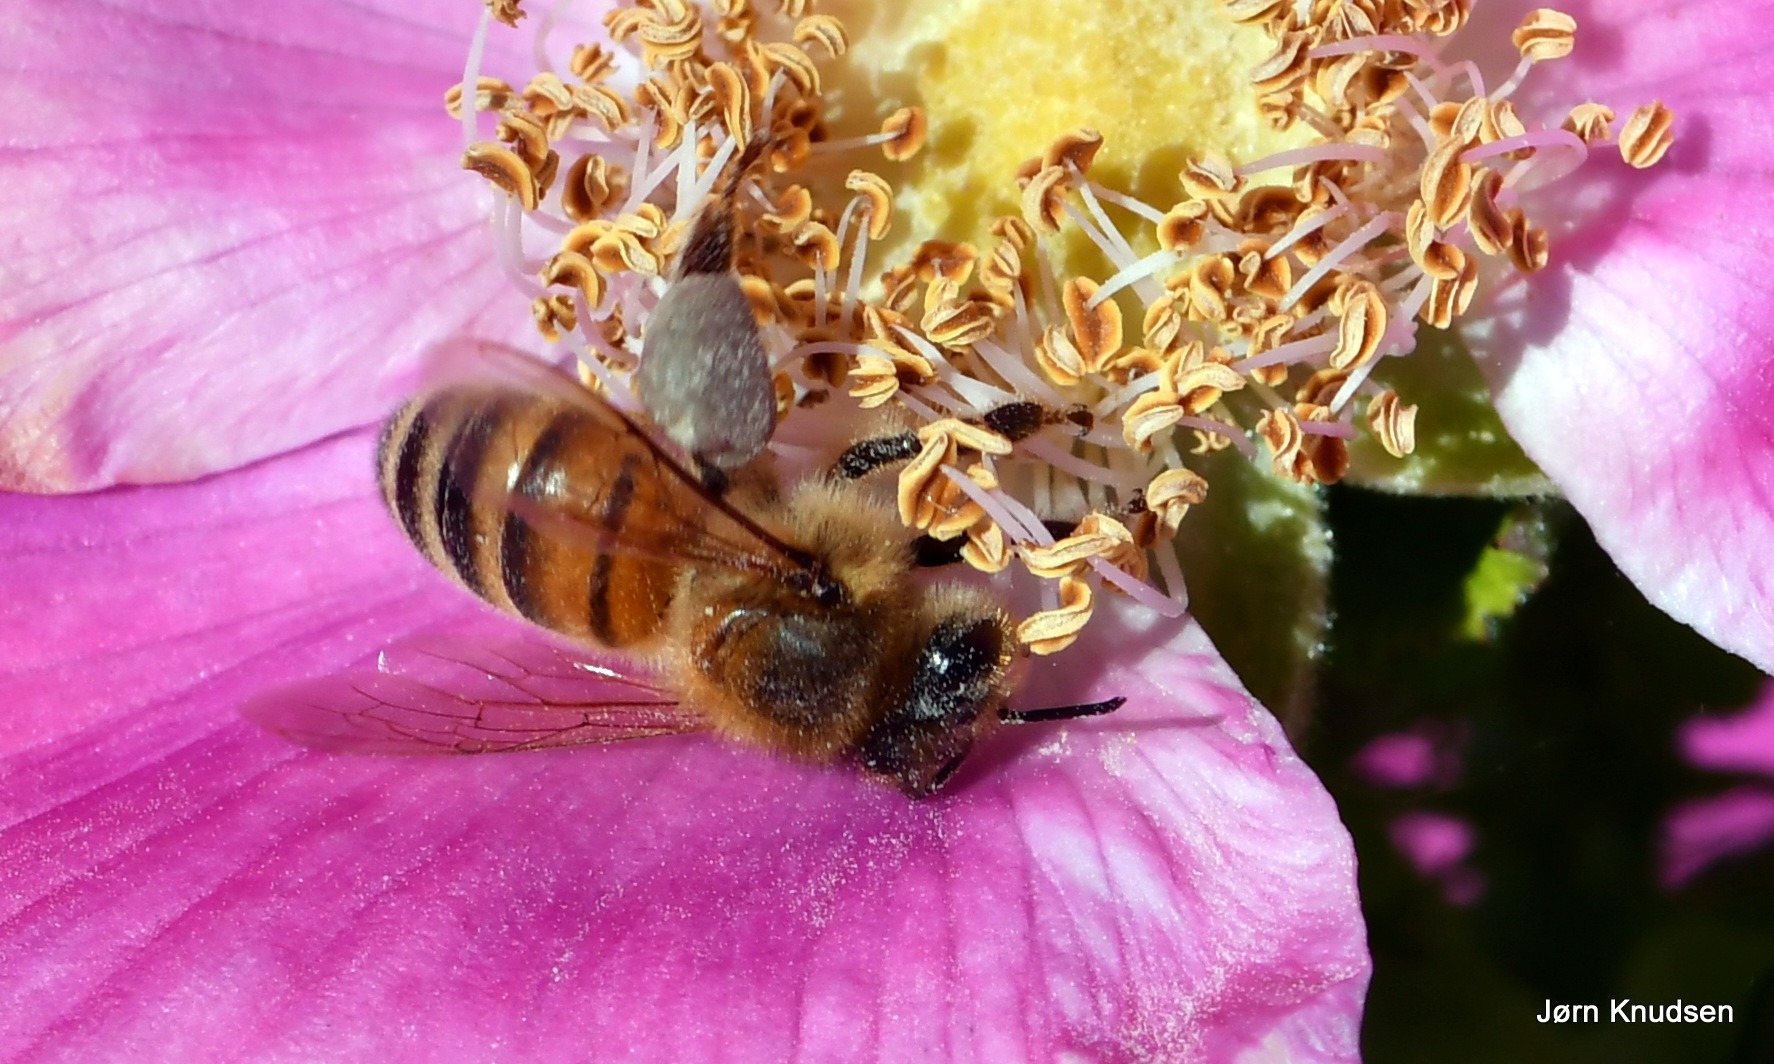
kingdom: Animalia
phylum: Arthropoda
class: Insecta
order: Hymenoptera
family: Apidae
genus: Apis
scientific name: Apis mellifera
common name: Honningbi
